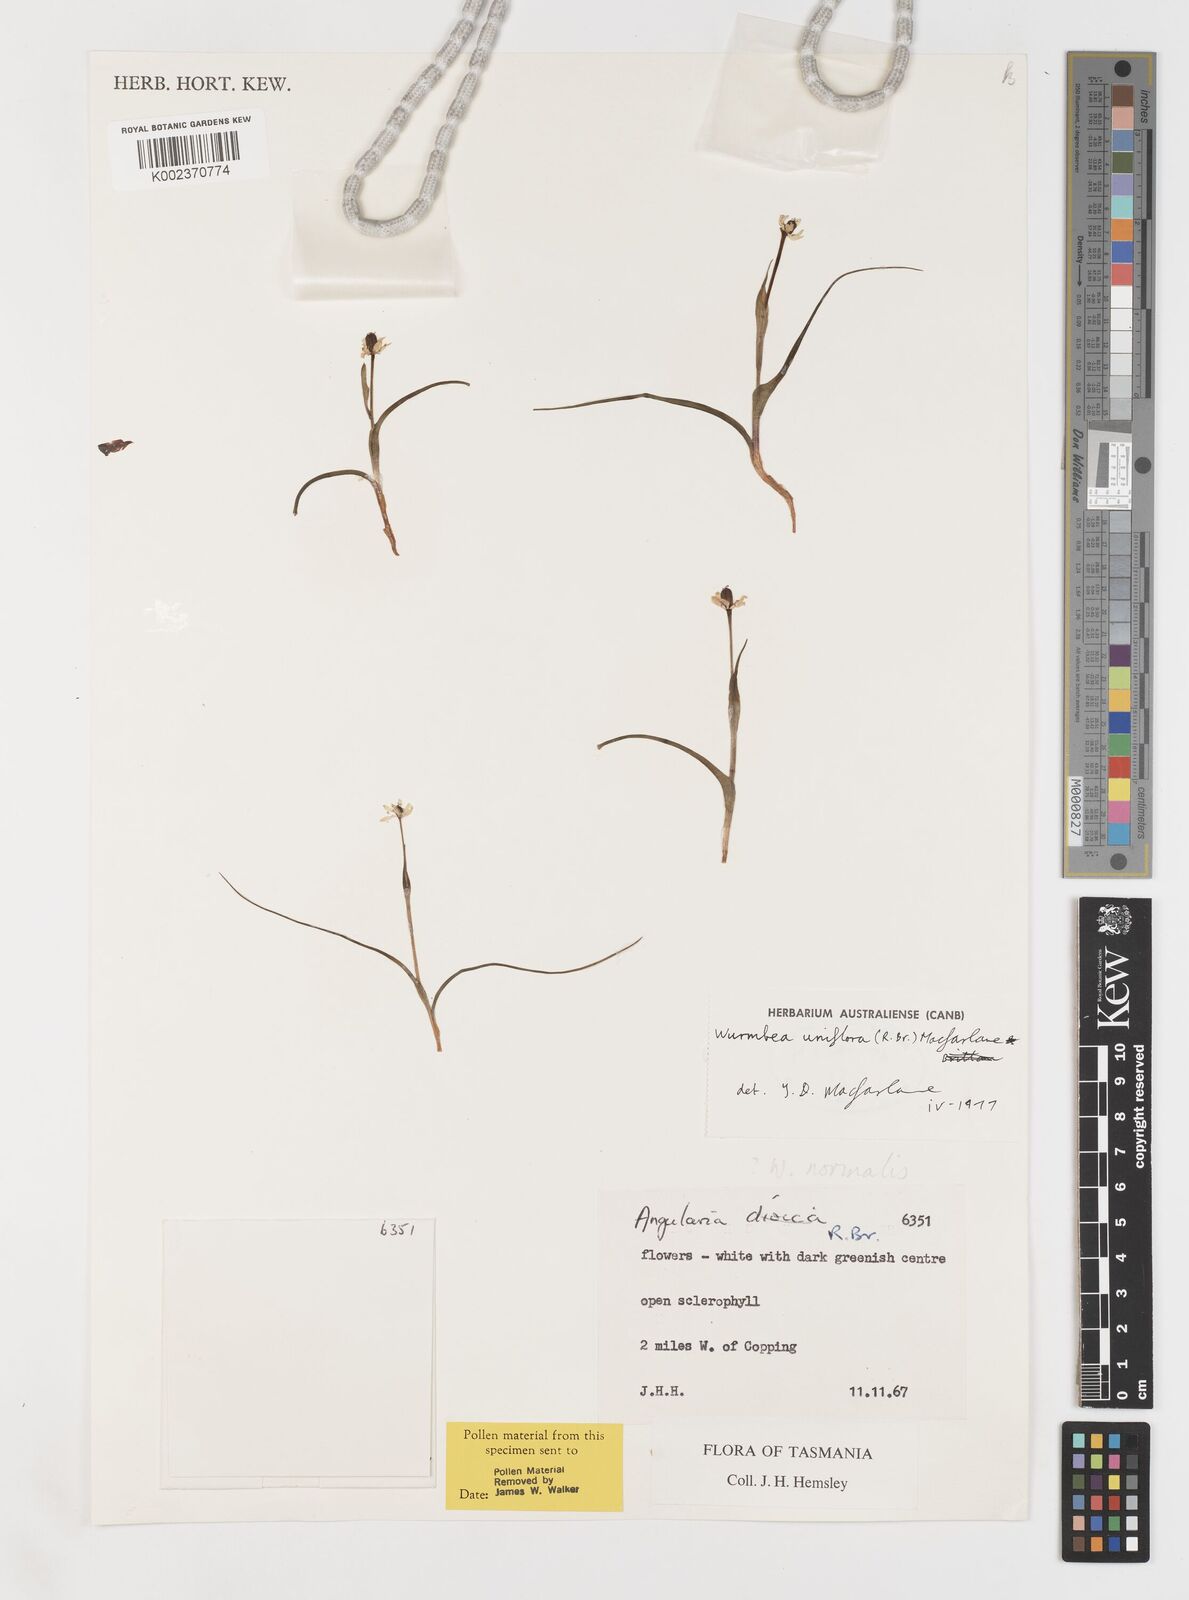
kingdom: Plantae
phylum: Tracheophyta
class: Liliopsida
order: Liliales
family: Colchicaceae
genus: Wurmbea
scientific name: Wurmbea uniflora
